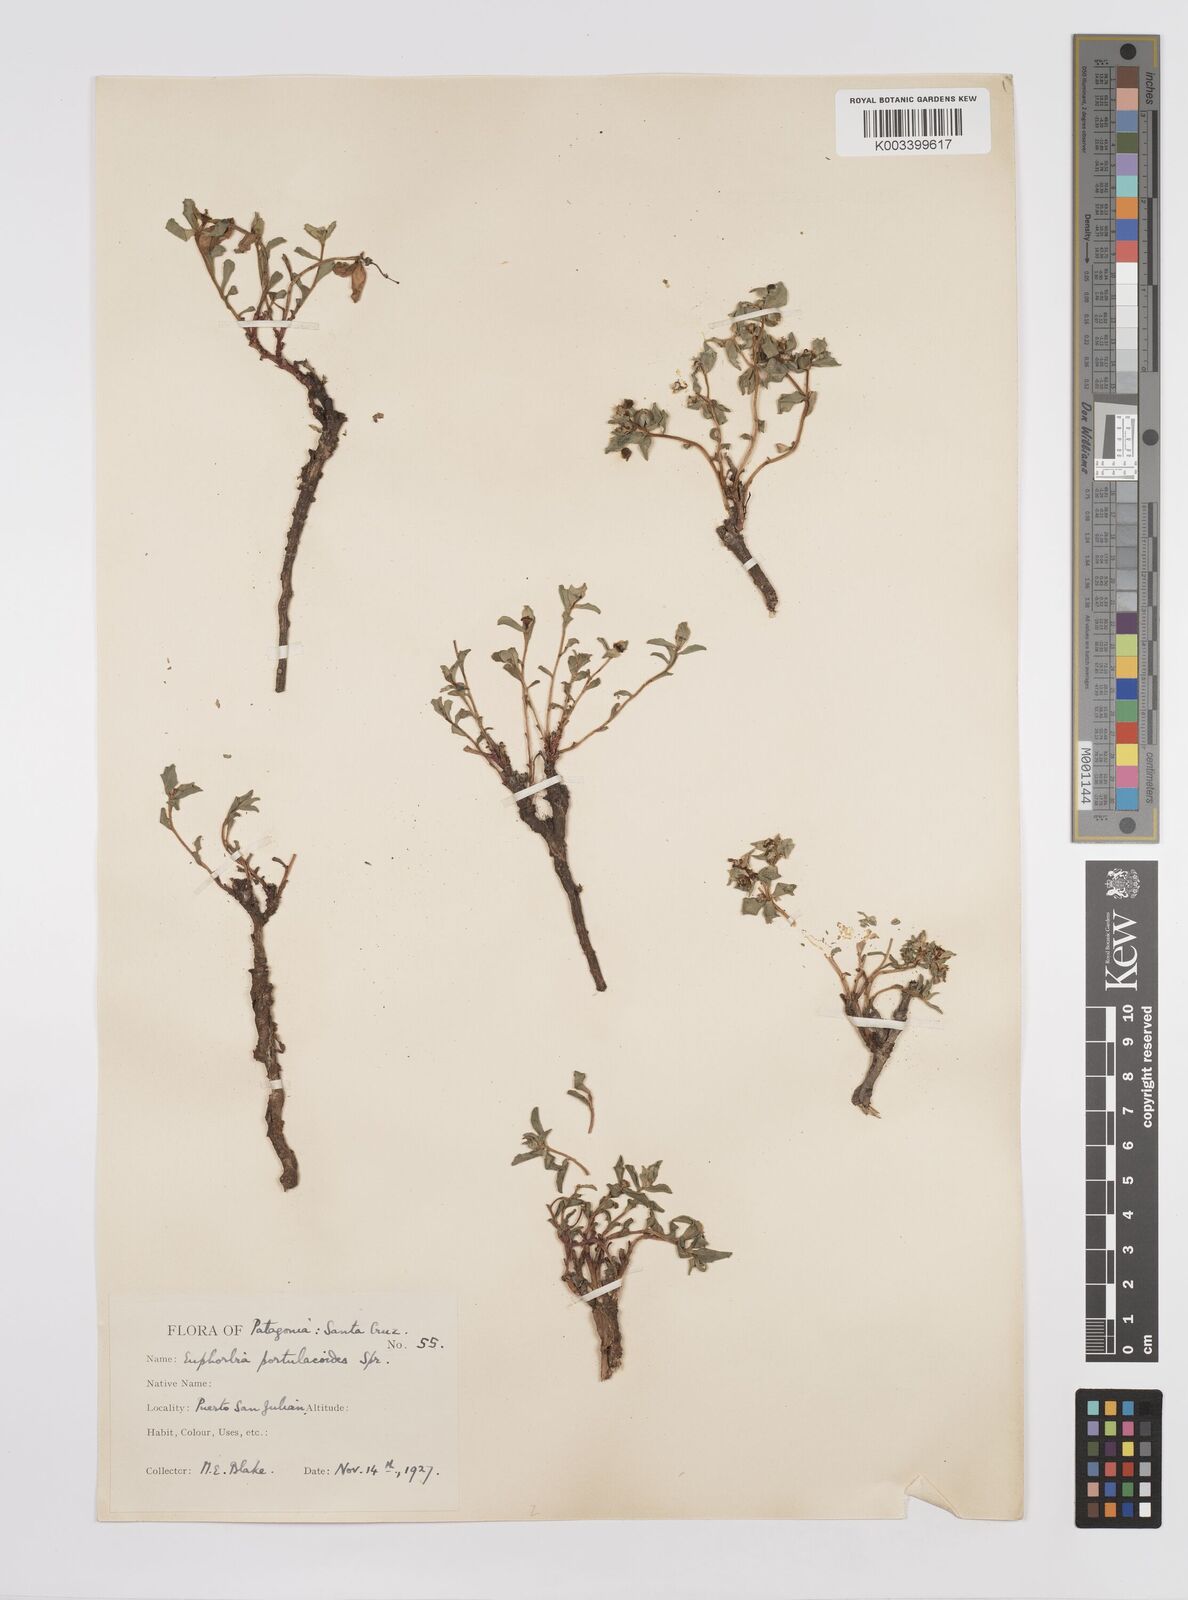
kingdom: Plantae
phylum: Tracheophyta
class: Magnoliopsida
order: Malpighiales
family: Euphorbiaceae
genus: Euphorbia
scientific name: Euphorbia portulacoides
